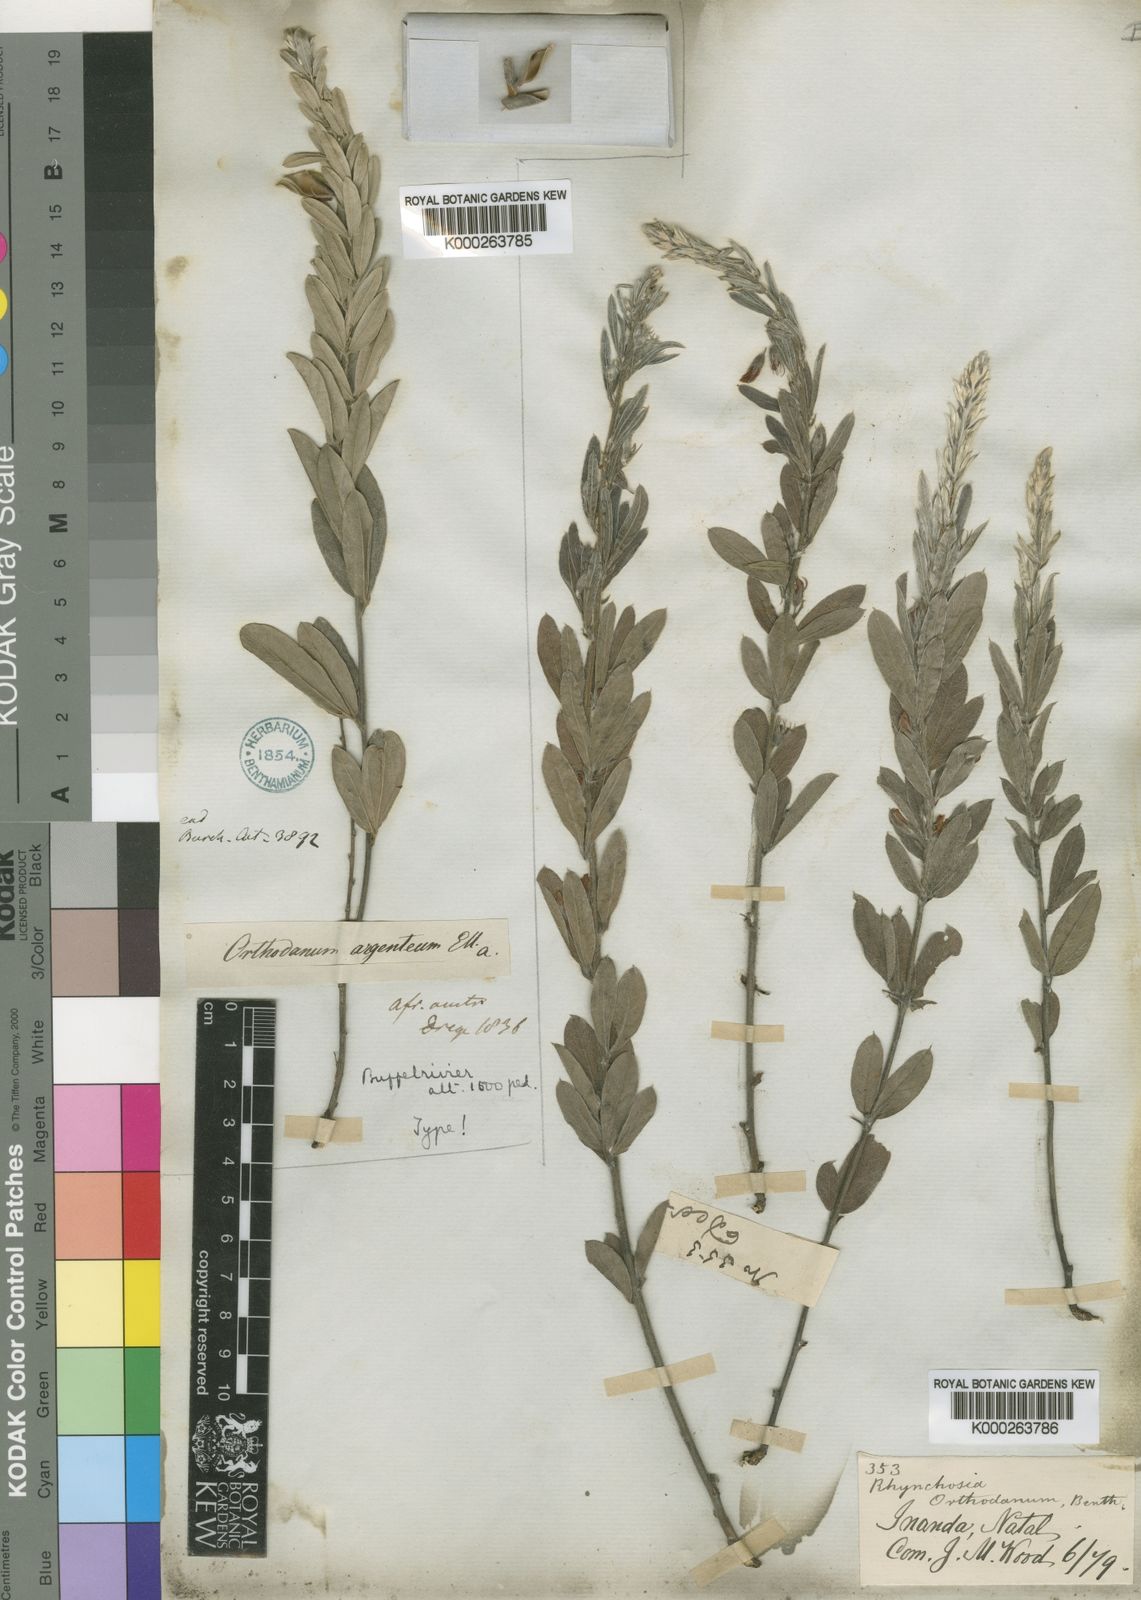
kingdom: Plantae
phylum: Tracheophyta
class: Magnoliopsida
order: Fabales
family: Fabaceae
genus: Rhynchosia
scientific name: Rhynchosia sordida
